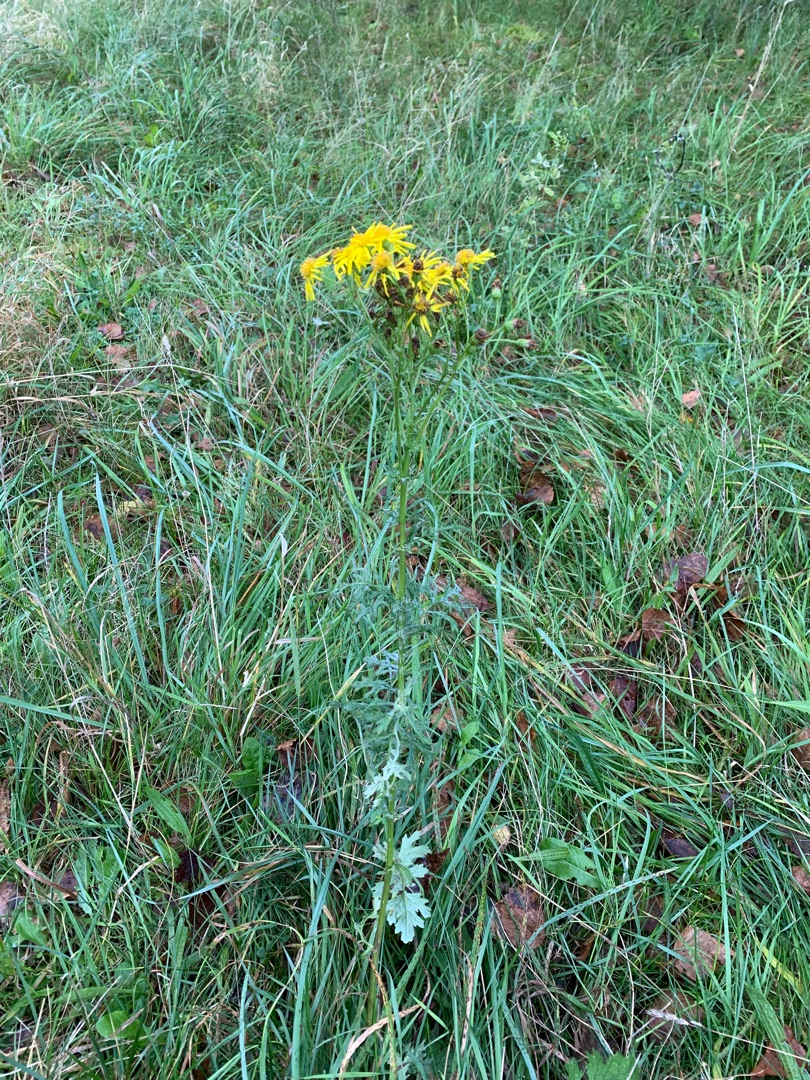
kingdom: Plantae
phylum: Tracheophyta
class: Magnoliopsida
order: Asterales
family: Asteraceae
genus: Jacobaea
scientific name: Jacobaea vulgaris
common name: Eng-brandbæger
